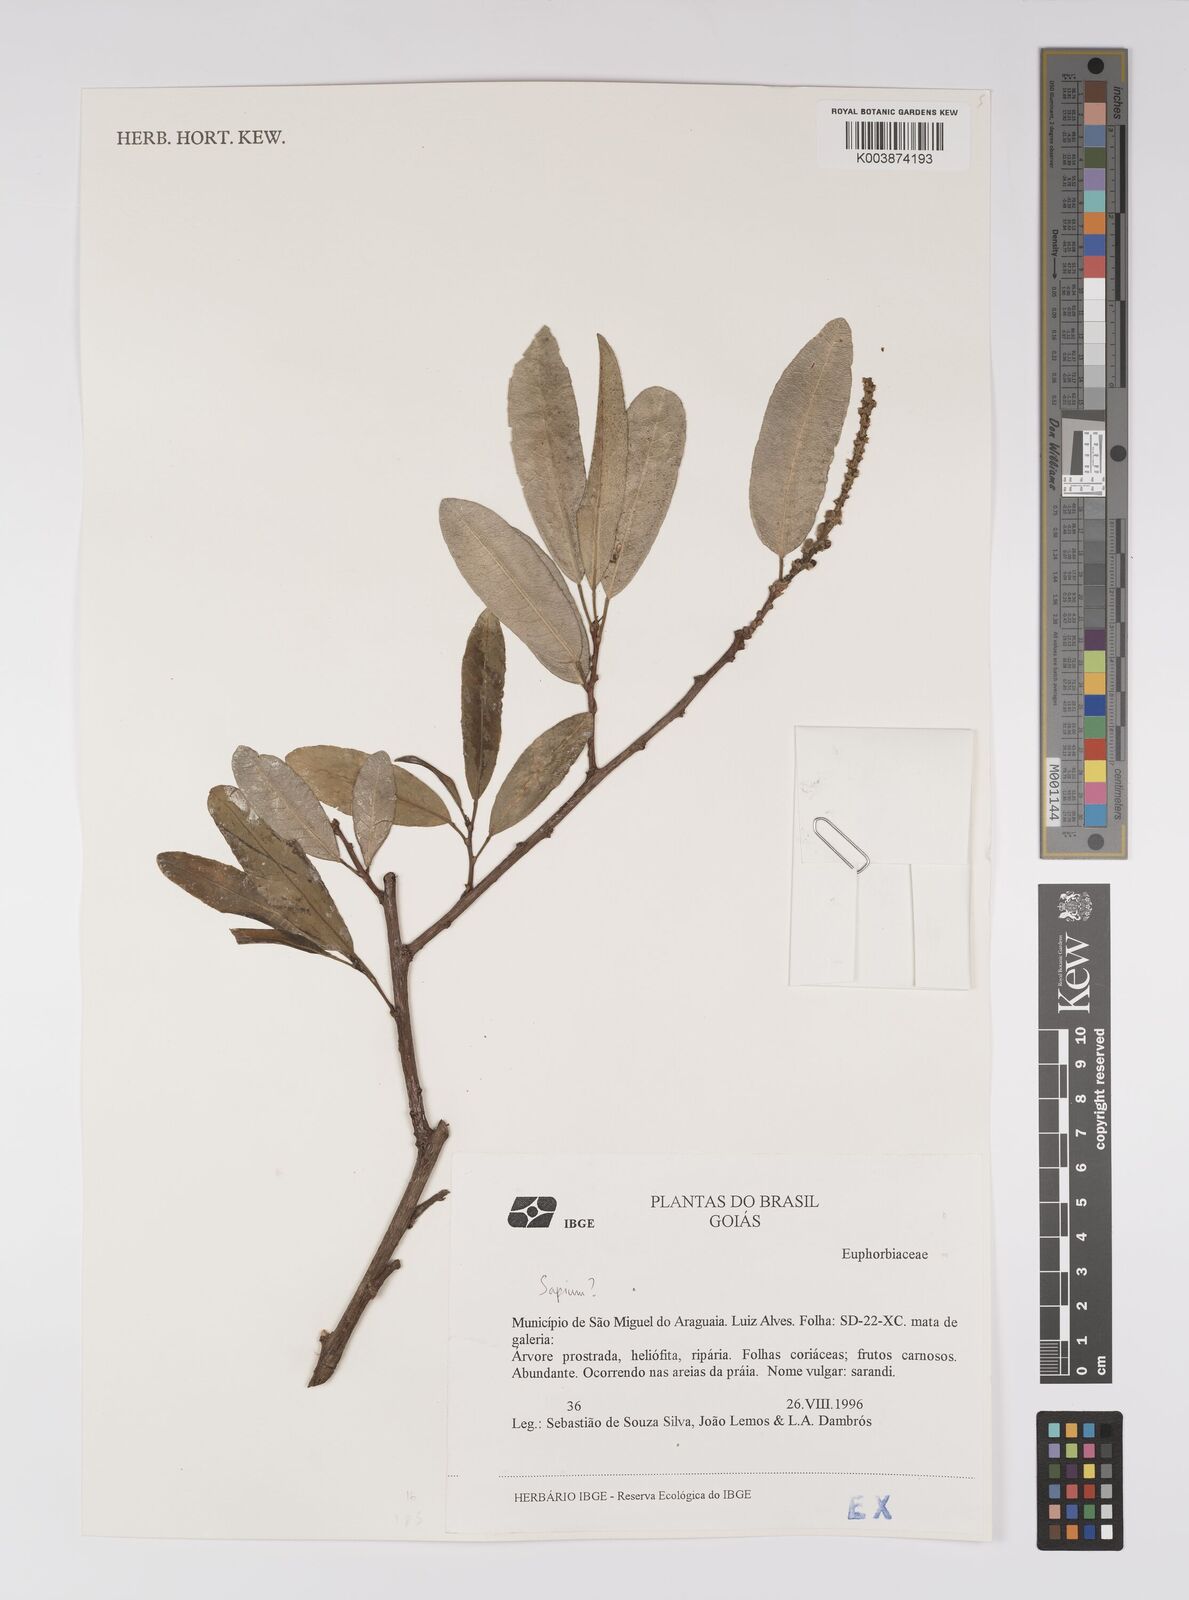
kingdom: Plantae
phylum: Tracheophyta
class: Magnoliopsida
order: Malpighiales
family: Euphorbiaceae
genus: Sapium
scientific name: Sapium
